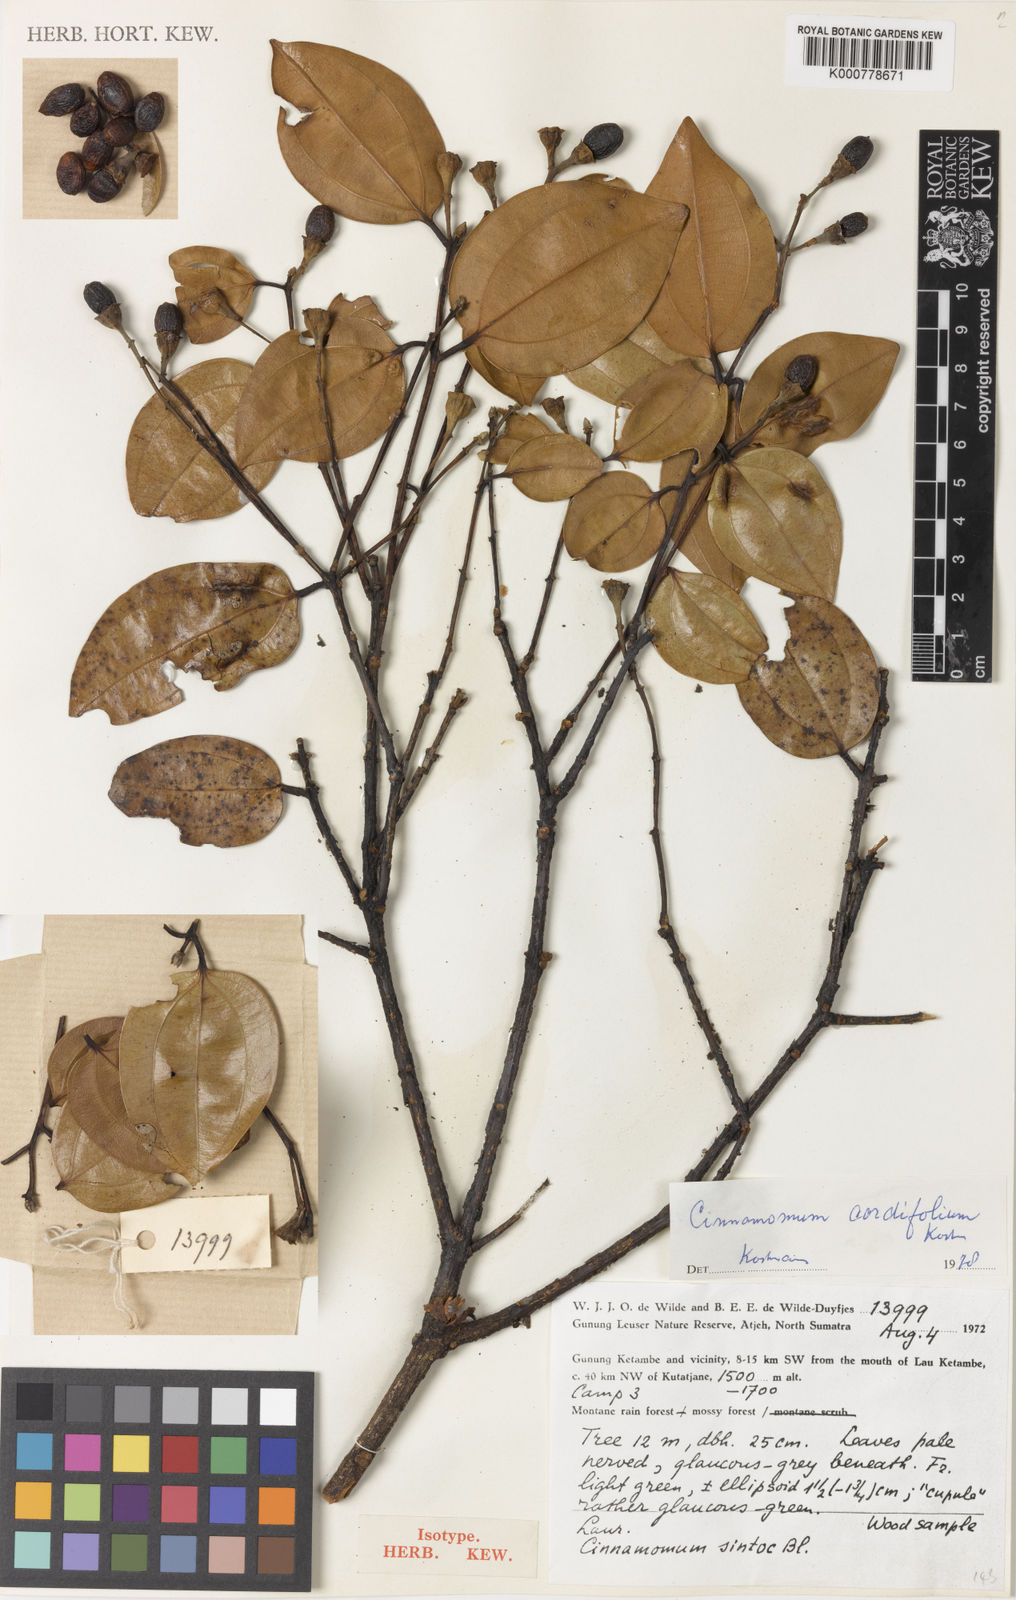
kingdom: Plantae
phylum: Tracheophyta
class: Magnoliopsida
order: Laurales
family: Lauraceae
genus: Cinnamomum
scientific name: Cinnamomum verum
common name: Cinnamon
